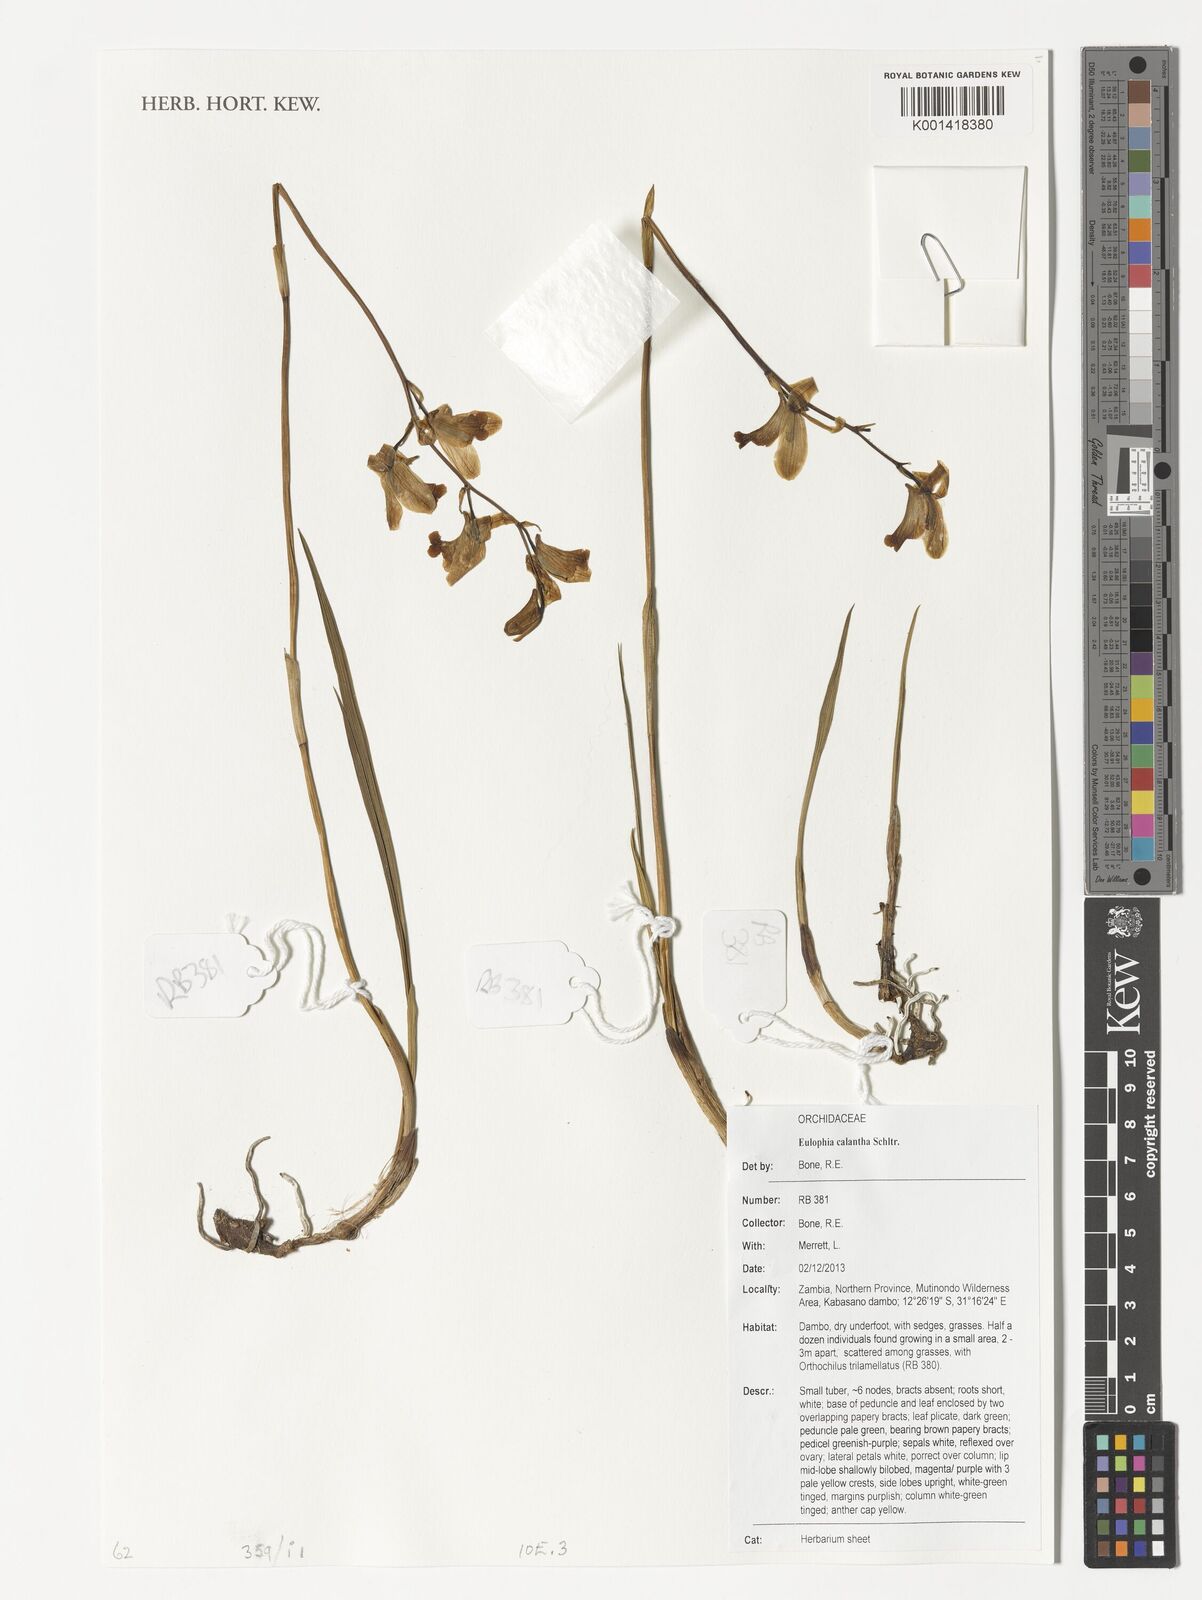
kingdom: Plantae
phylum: Tracheophyta
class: Liliopsida
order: Asparagales
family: Orchidaceae
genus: Eulophia
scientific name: Eulophia calantha
